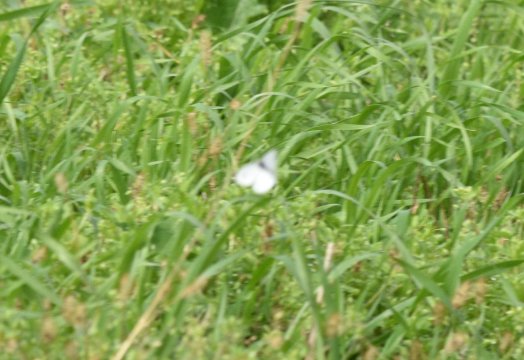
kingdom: Animalia
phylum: Arthropoda
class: Insecta
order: Lepidoptera
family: Pieridae
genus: Pieris
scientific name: Pieris rapae
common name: Cabbage White
